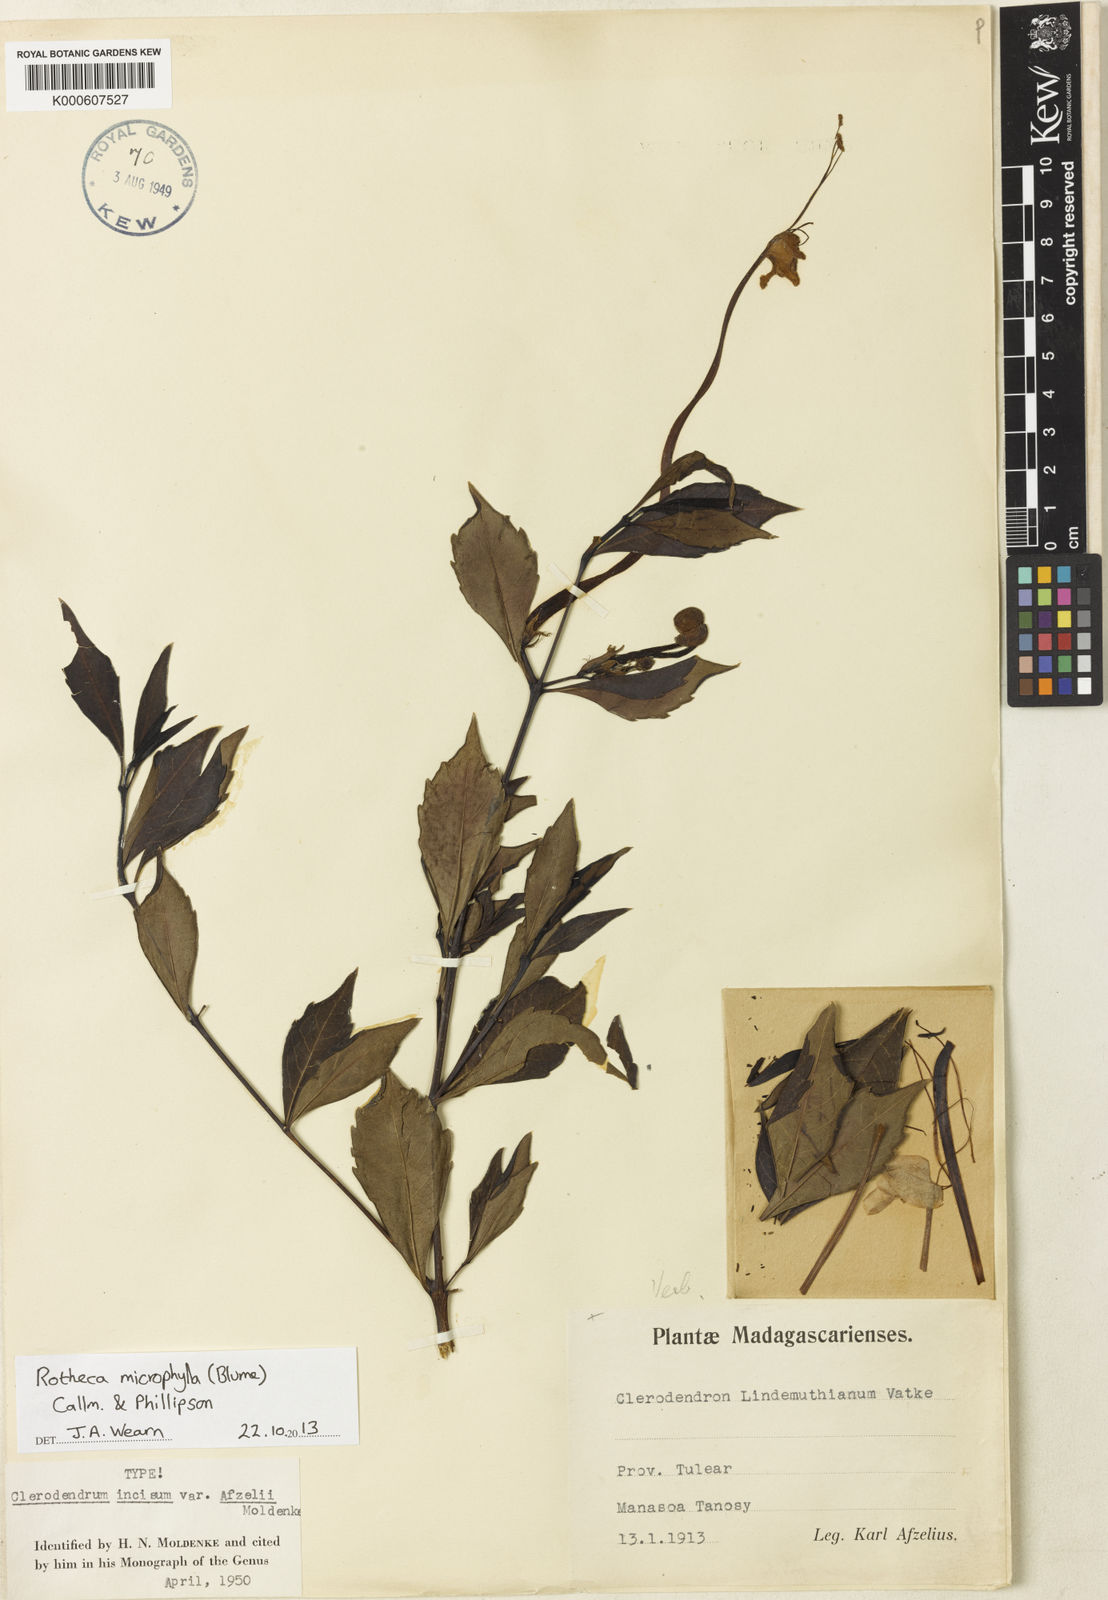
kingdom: Plantae
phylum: Tracheophyta
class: Magnoliopsida
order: Lamiales
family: Lamiaceae
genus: Rotheca
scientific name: Rotheca microphylla
